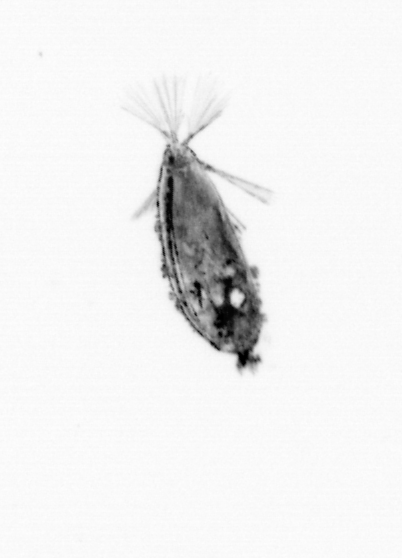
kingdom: Animalia
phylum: Arthropoda
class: Maxillopoda
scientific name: Maxillopoda
